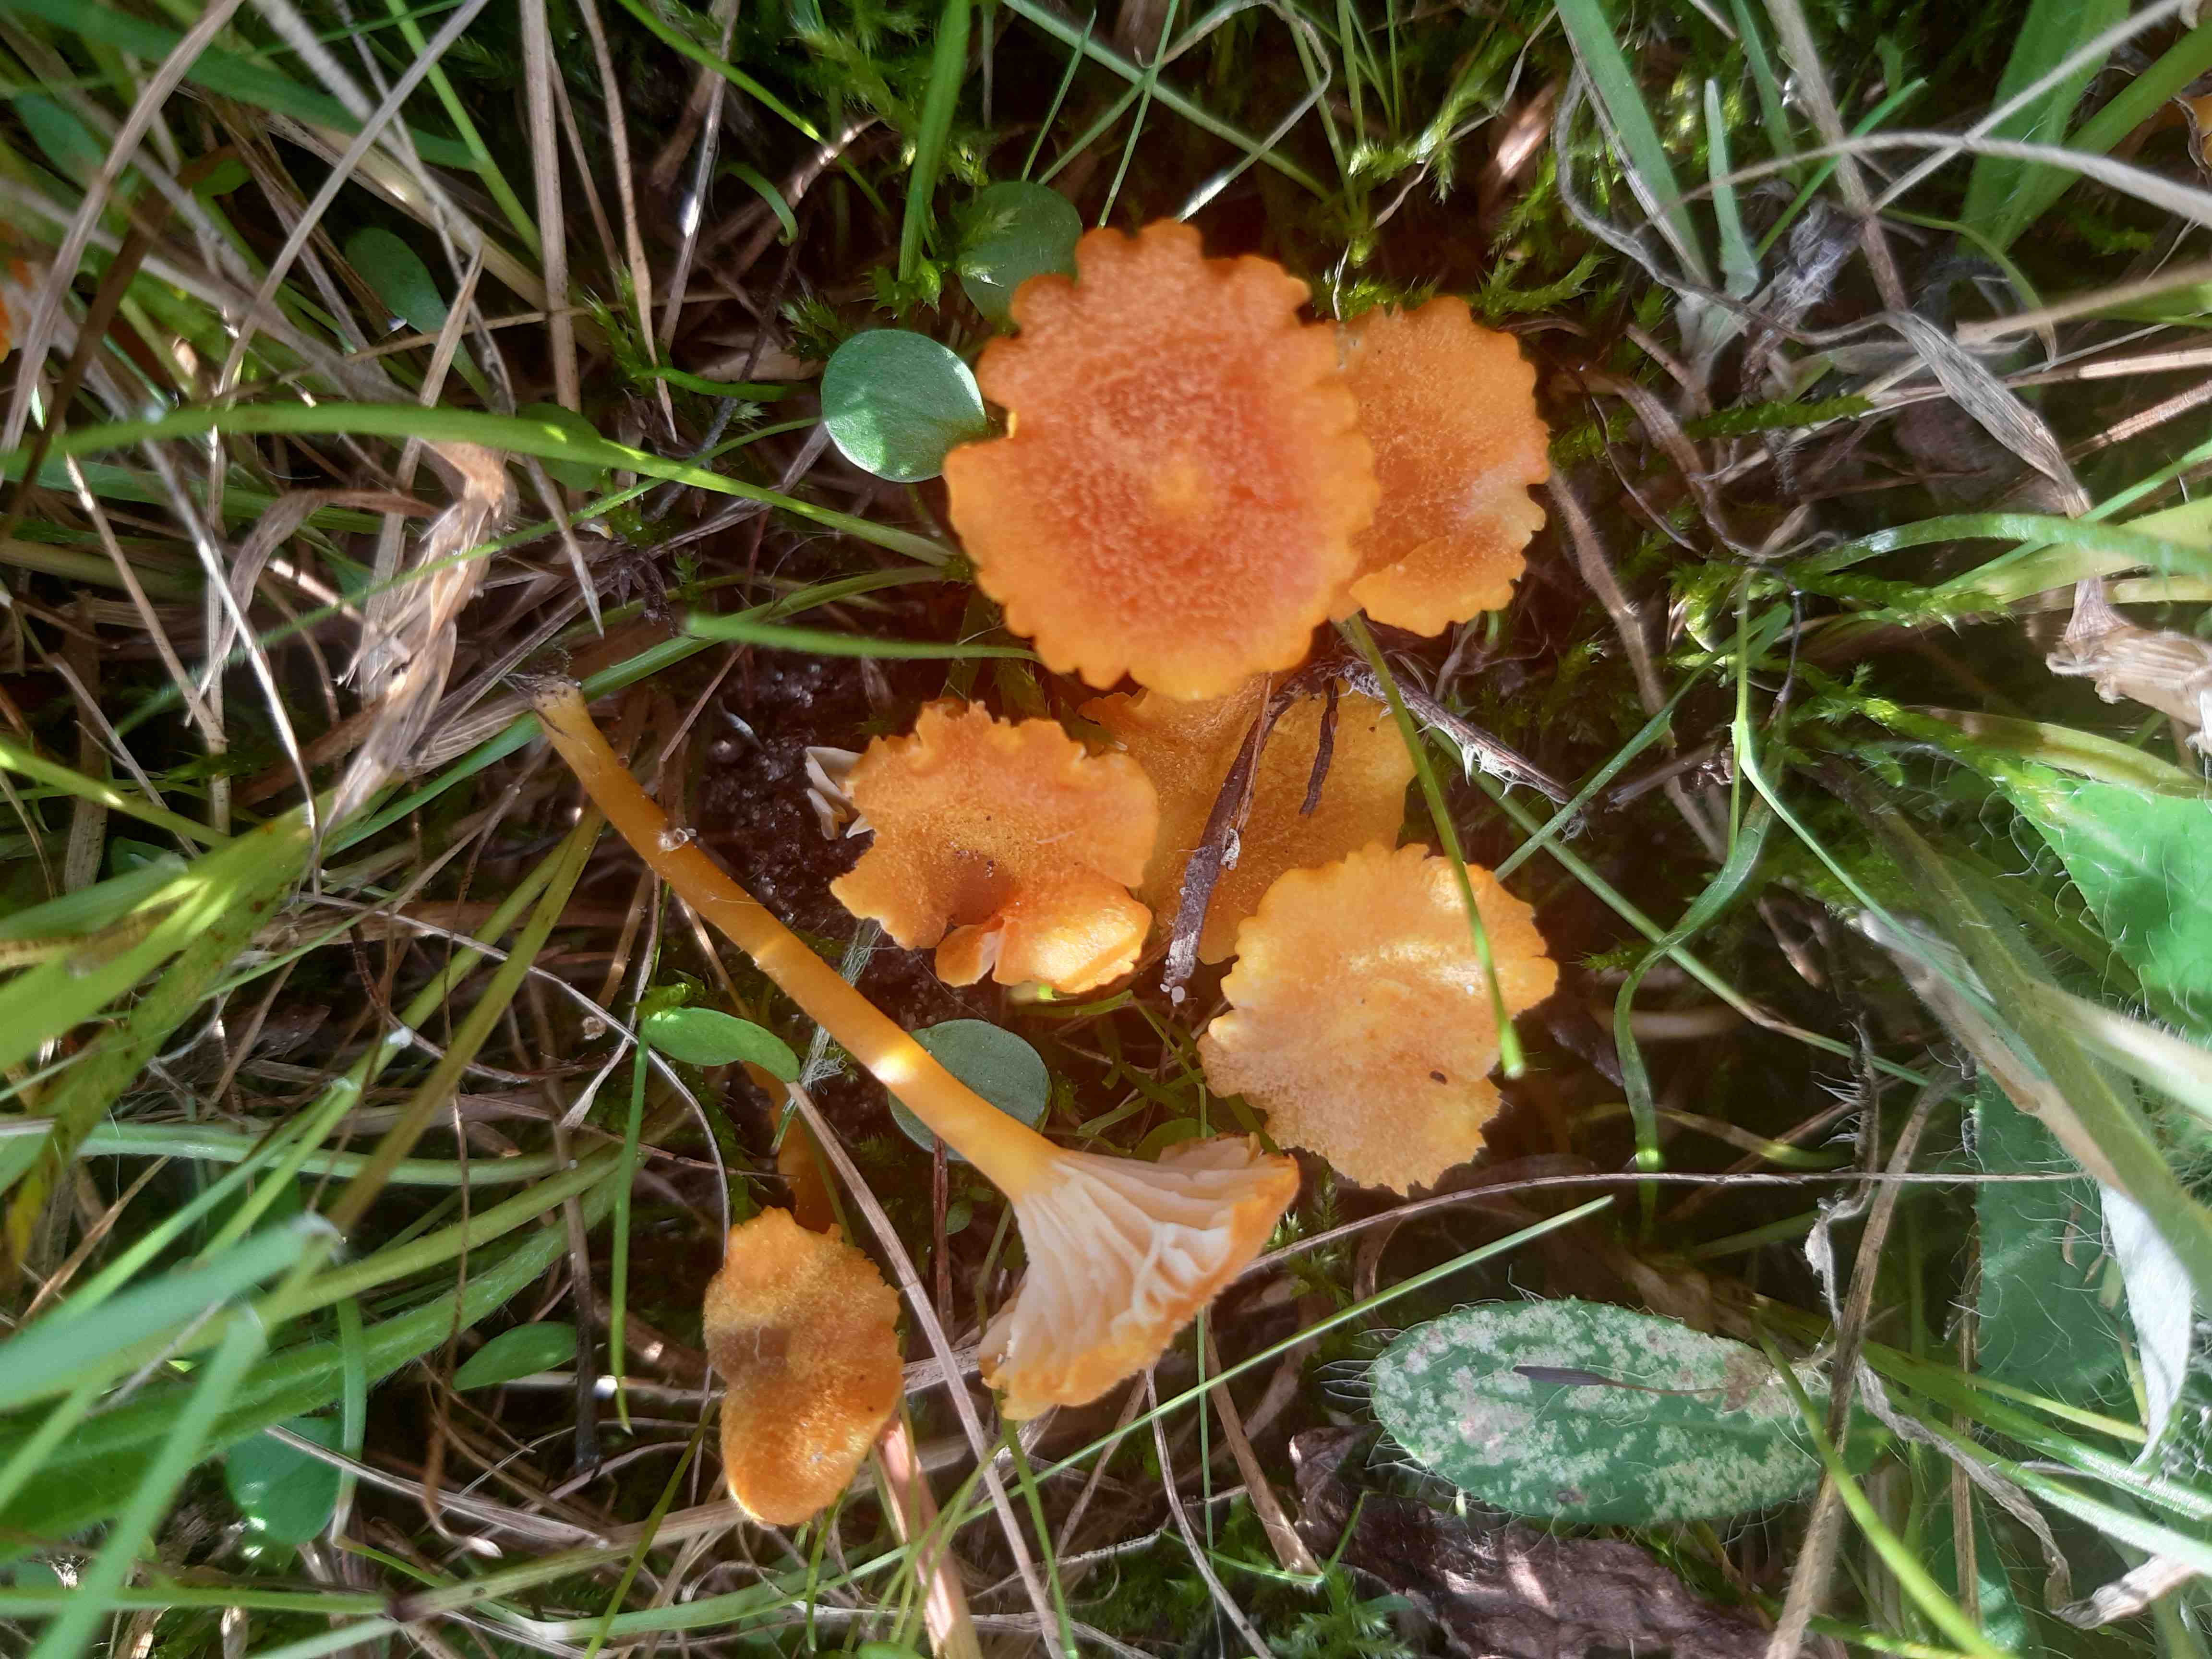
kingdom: Fungi
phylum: Basidiomycota
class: Agaricomycetes
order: Agaricales
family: Hygrophoraceae
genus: Hygrocybe
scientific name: Hygrocybe cantharellus
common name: kantarel-vokshat
